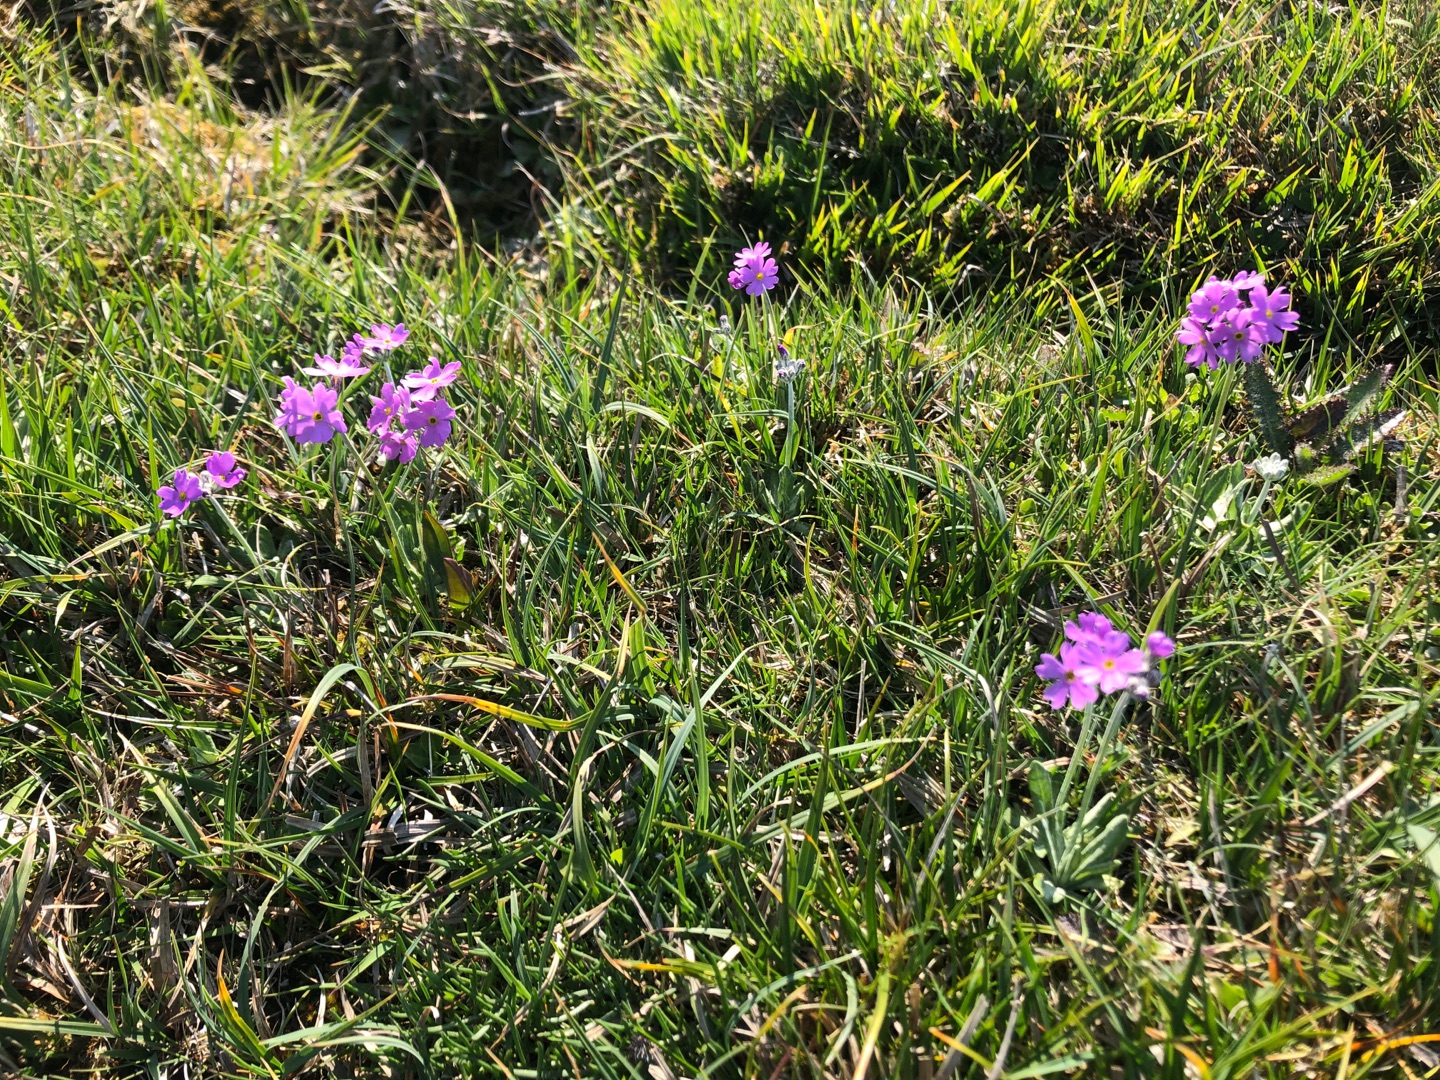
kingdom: Plantae
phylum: Tracheophyta
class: Magnoliopsida
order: Ericales
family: Primulaceae
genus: Primula
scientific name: Primula farinosa
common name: Melet kodriver
